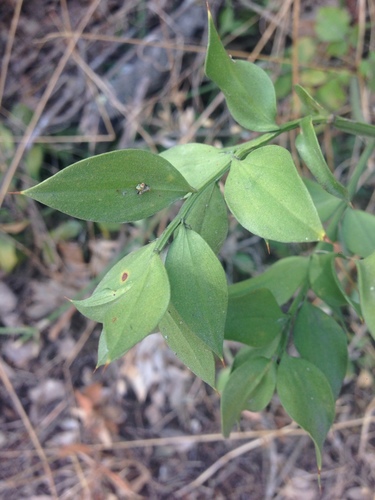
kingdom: Plantae
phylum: Tracheophyta
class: Liliopsida
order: Asparagales
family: Asparagaceae
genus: Ruscus
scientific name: Ruscus aculeatus
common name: Butcher's-broom
